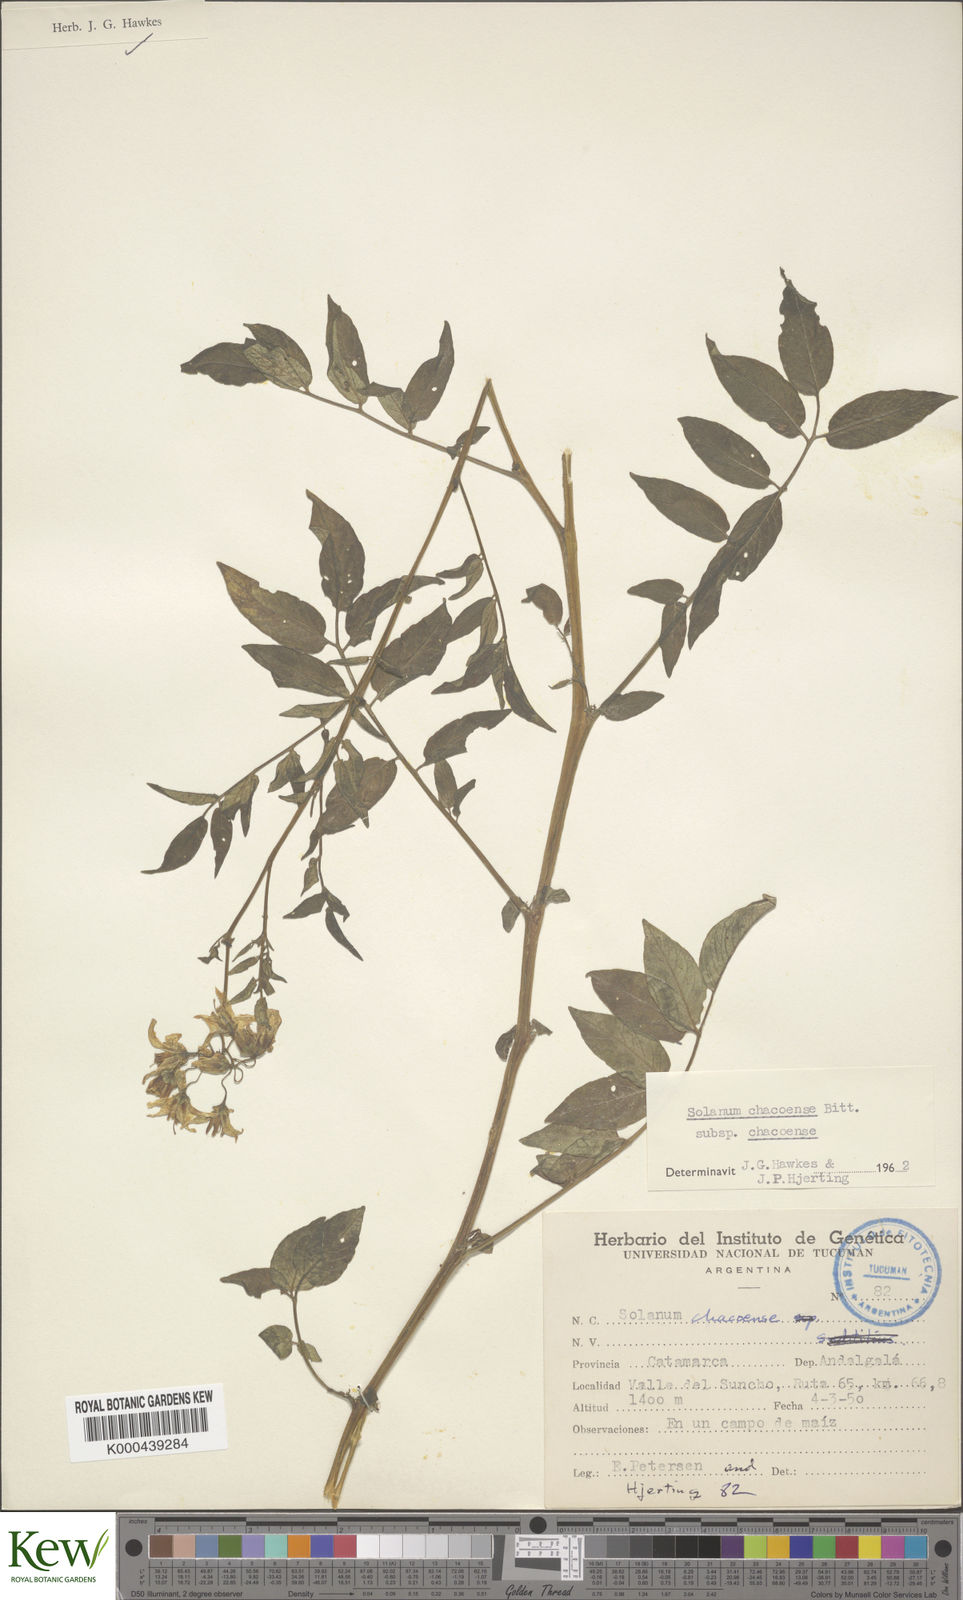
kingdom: Plantae
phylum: Tracheophyta
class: Magnoliopsida
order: Solanales
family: Solanaceae
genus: Solanum
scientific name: Solanum chacoense
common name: Chaco potato
